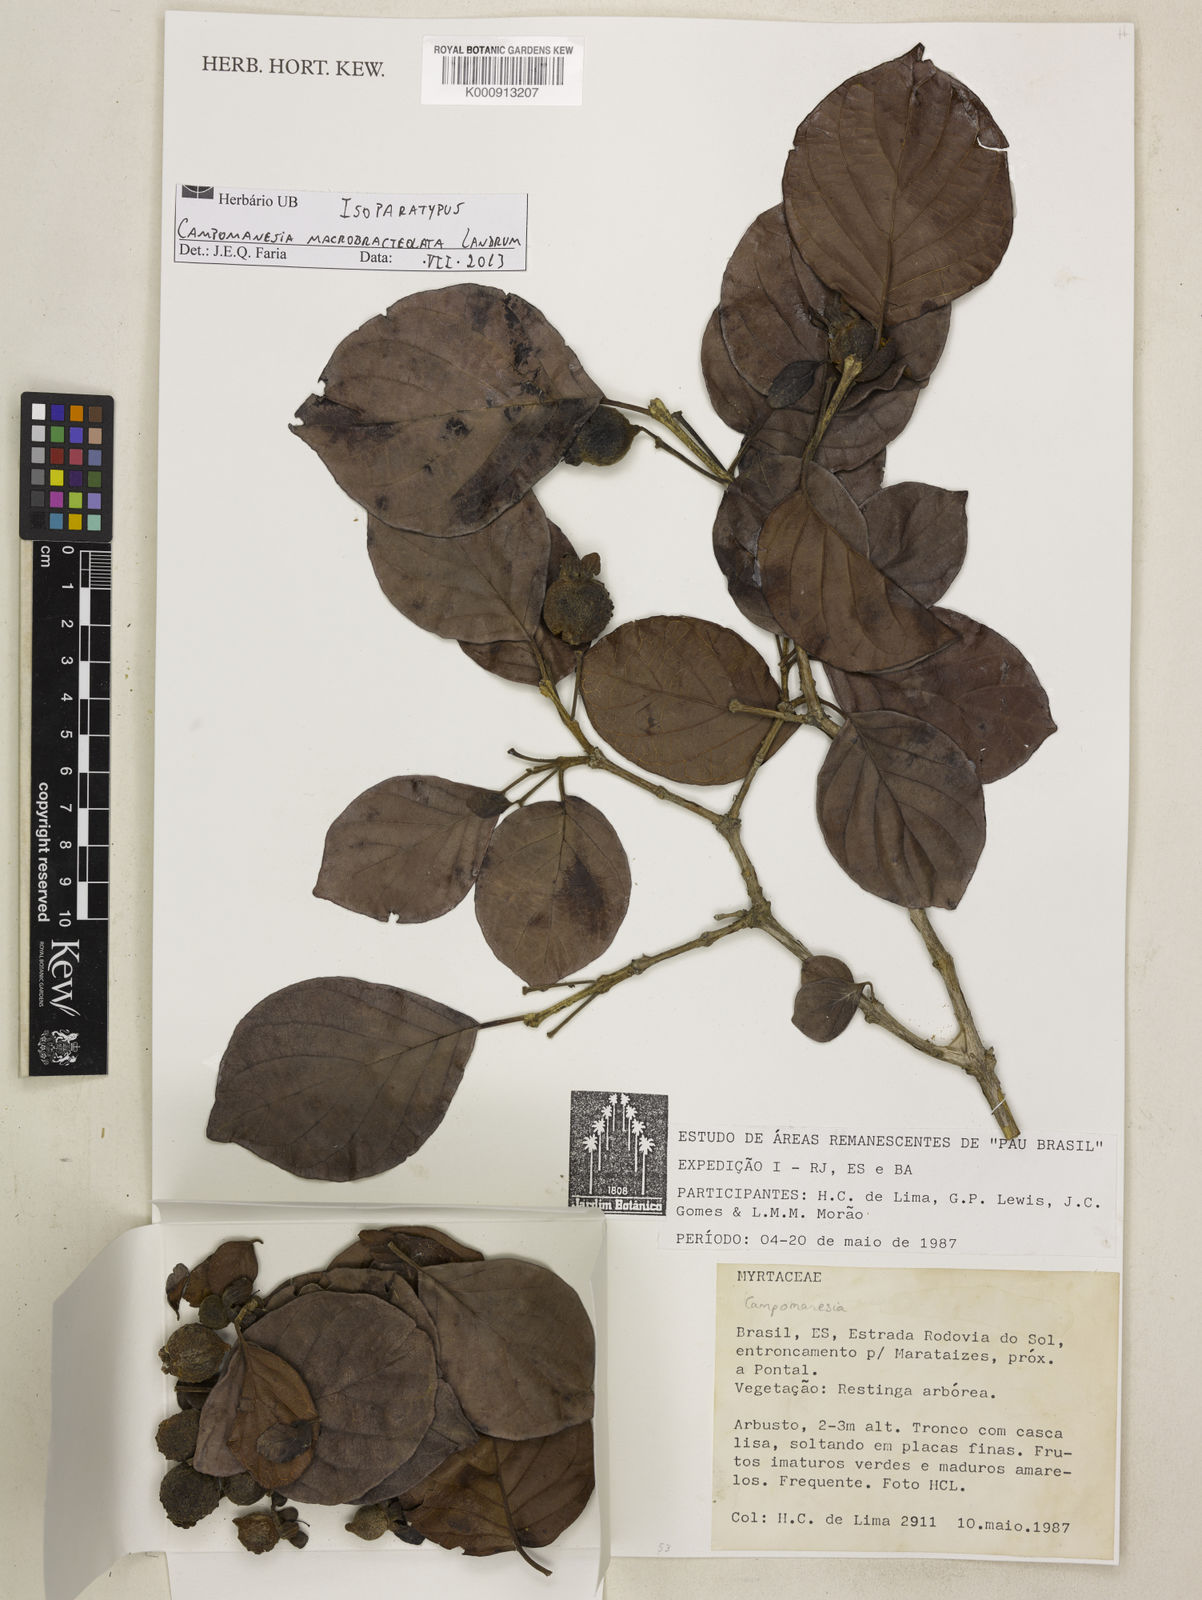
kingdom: Plantae
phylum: Tracheophyta
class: Magnoliopsida
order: Myrtales
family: Myrtaceae
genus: Campomanesia
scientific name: Campomanesia macrobracteolata
